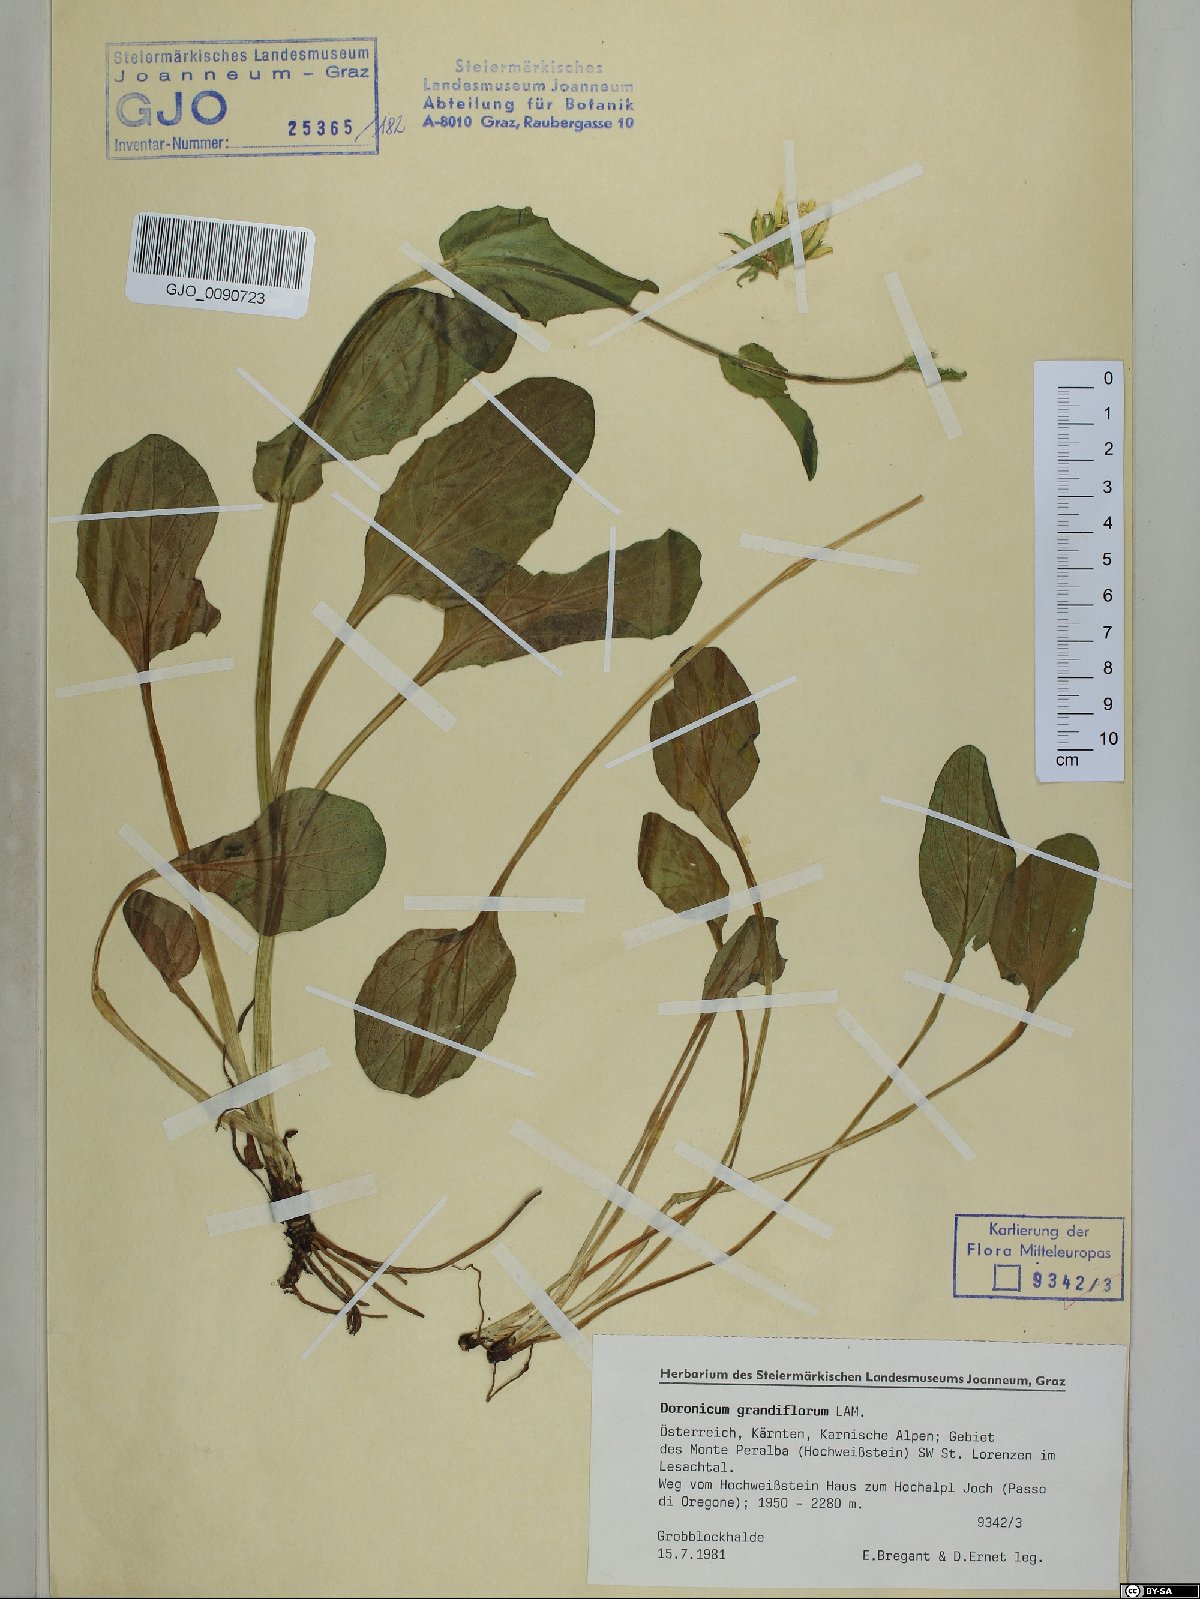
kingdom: Plantae
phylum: Tracheophyta
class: Magnoliopsida
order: Asterales
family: Asteraceae
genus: Doronicum
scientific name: Doronicum grandiflorum
